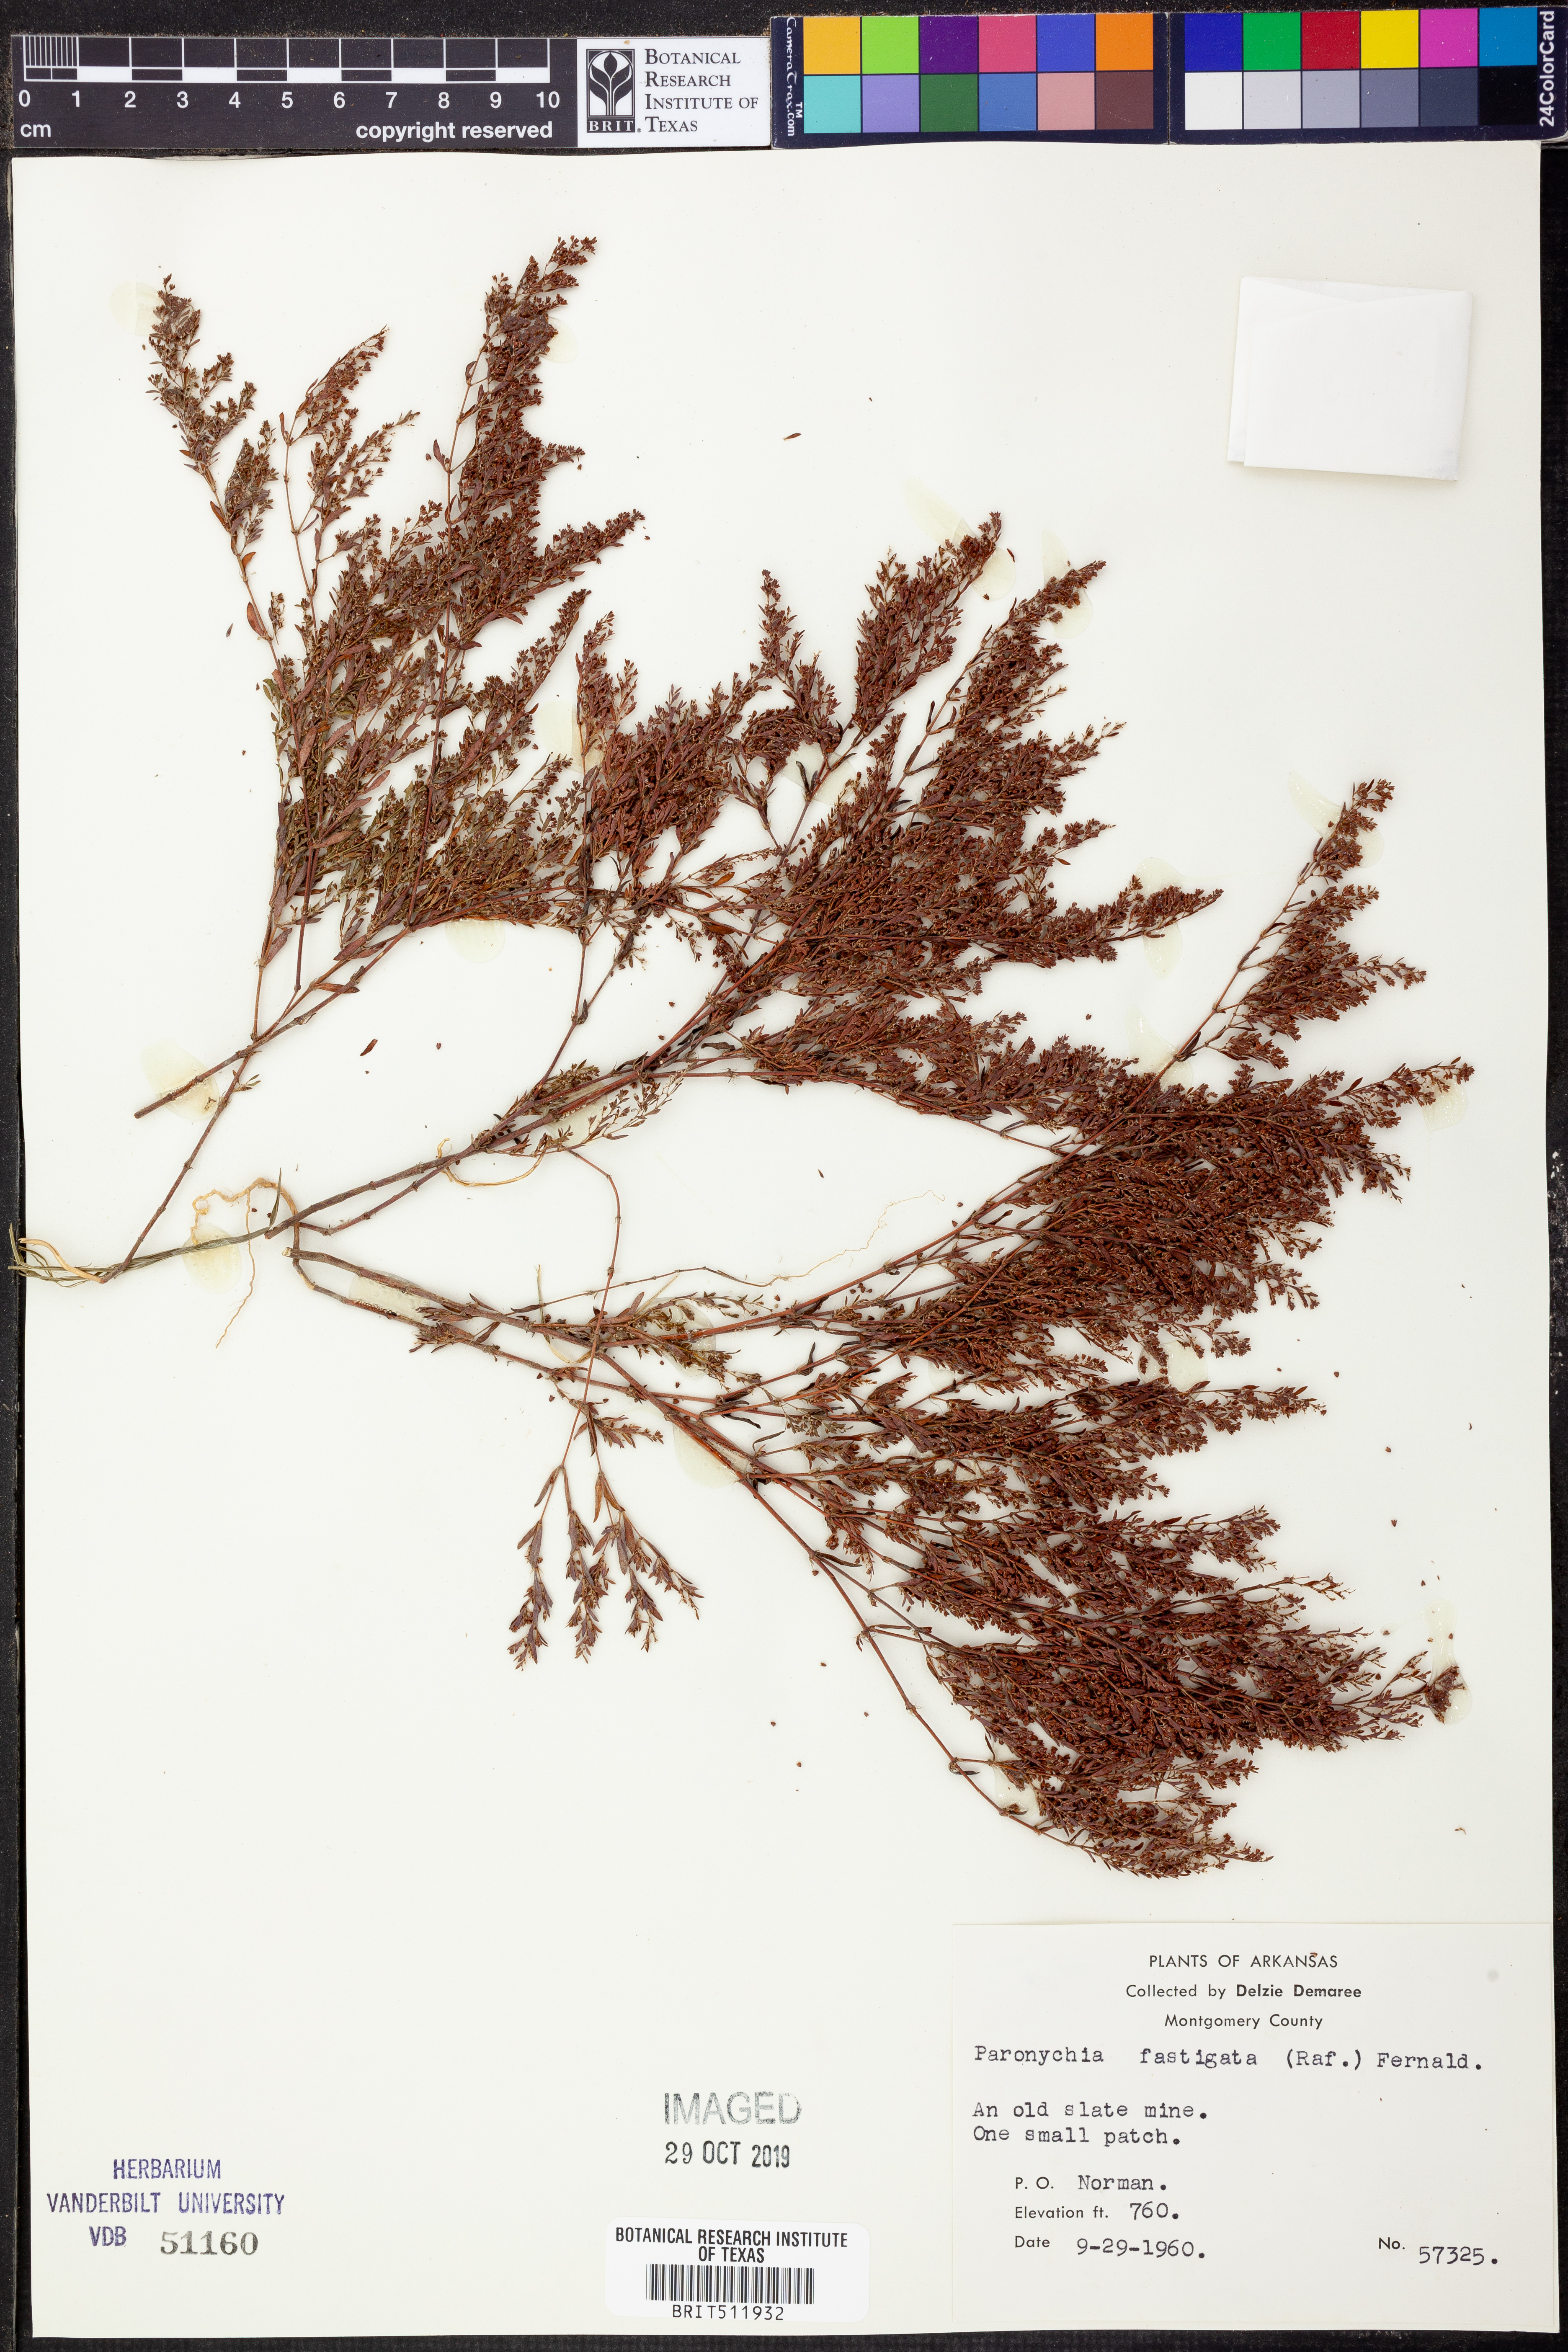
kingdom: Plantae
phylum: Tracheophyta
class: Magnoliopsida
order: Caryophyllales
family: Caryophyllaceae
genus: Paronychia
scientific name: Paronychia fastigiata
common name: Branching forked whitlow-wort
